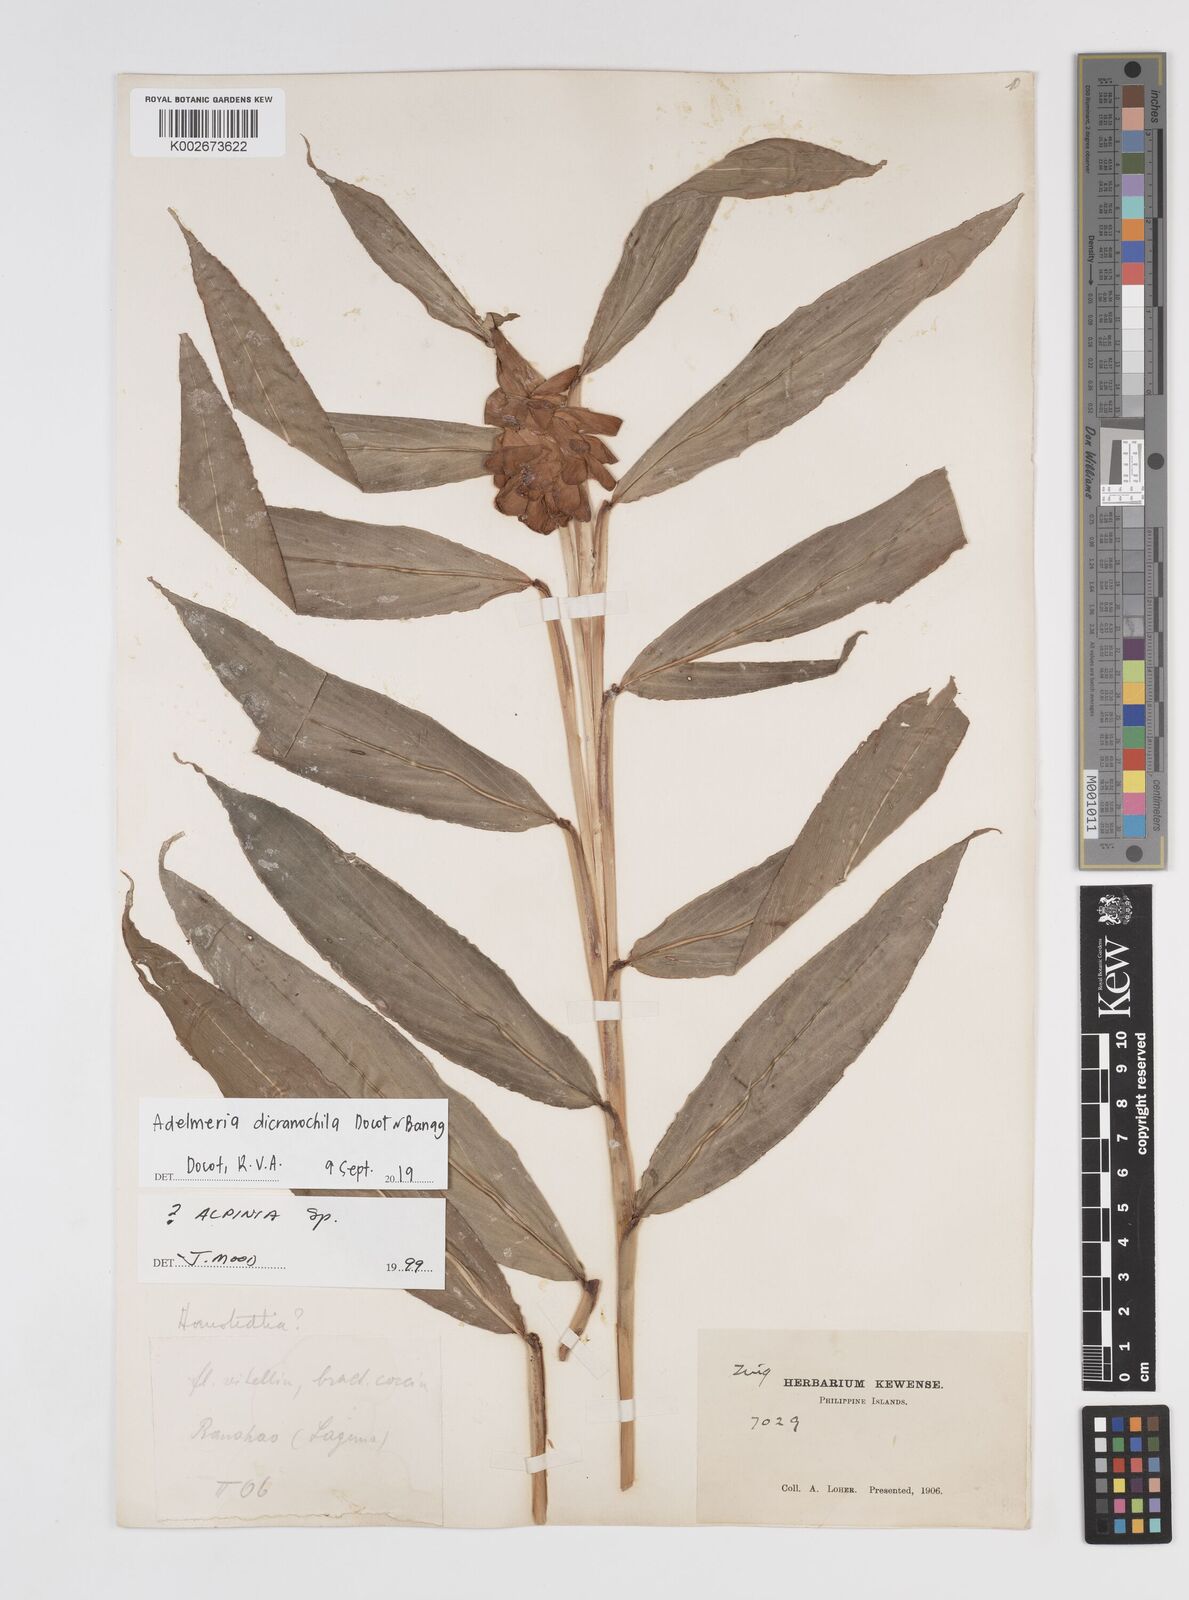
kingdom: Plantae
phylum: Tracheophyta
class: Liliopsida
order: Zingiberales
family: Zingiberaceae
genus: Adelmeria
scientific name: Adelmeria dicranochila
